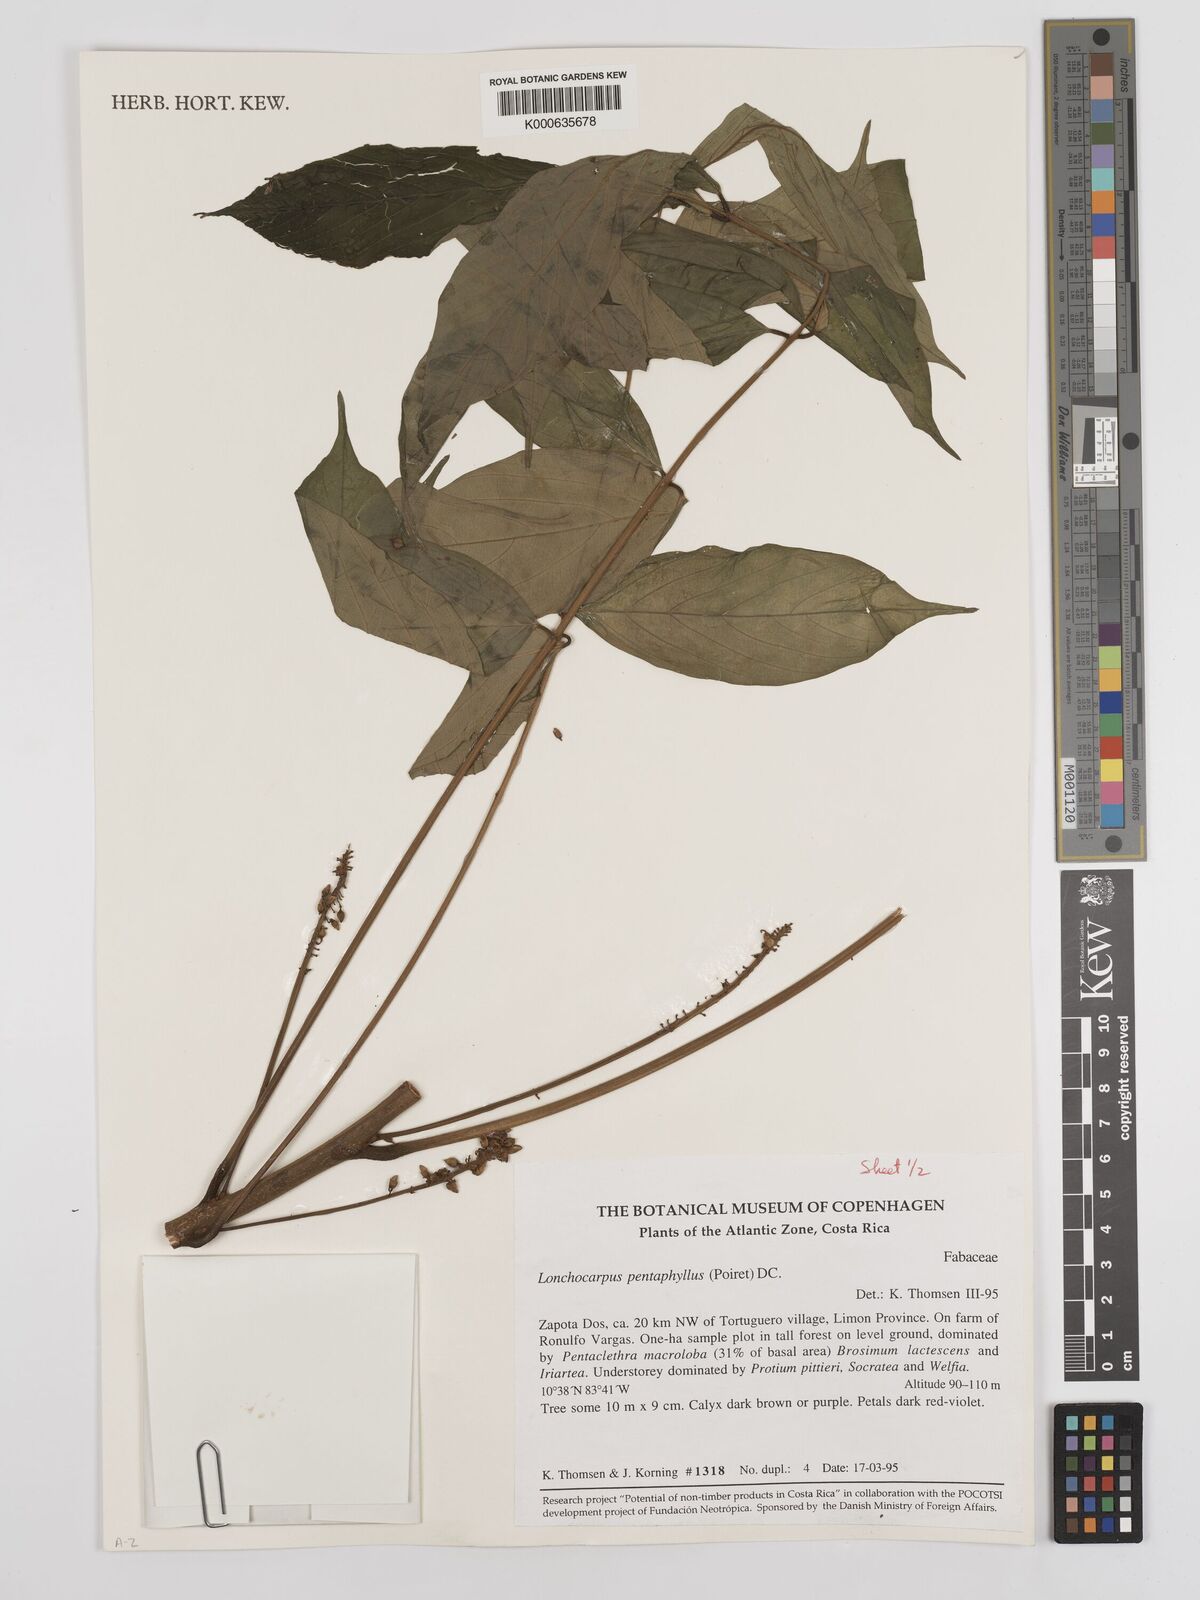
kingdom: Plantae
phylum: Tracheophyta
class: Magnoliopsida
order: Fabales
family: Fabaceae
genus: Lonchocarpus
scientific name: Lonchocarpus
